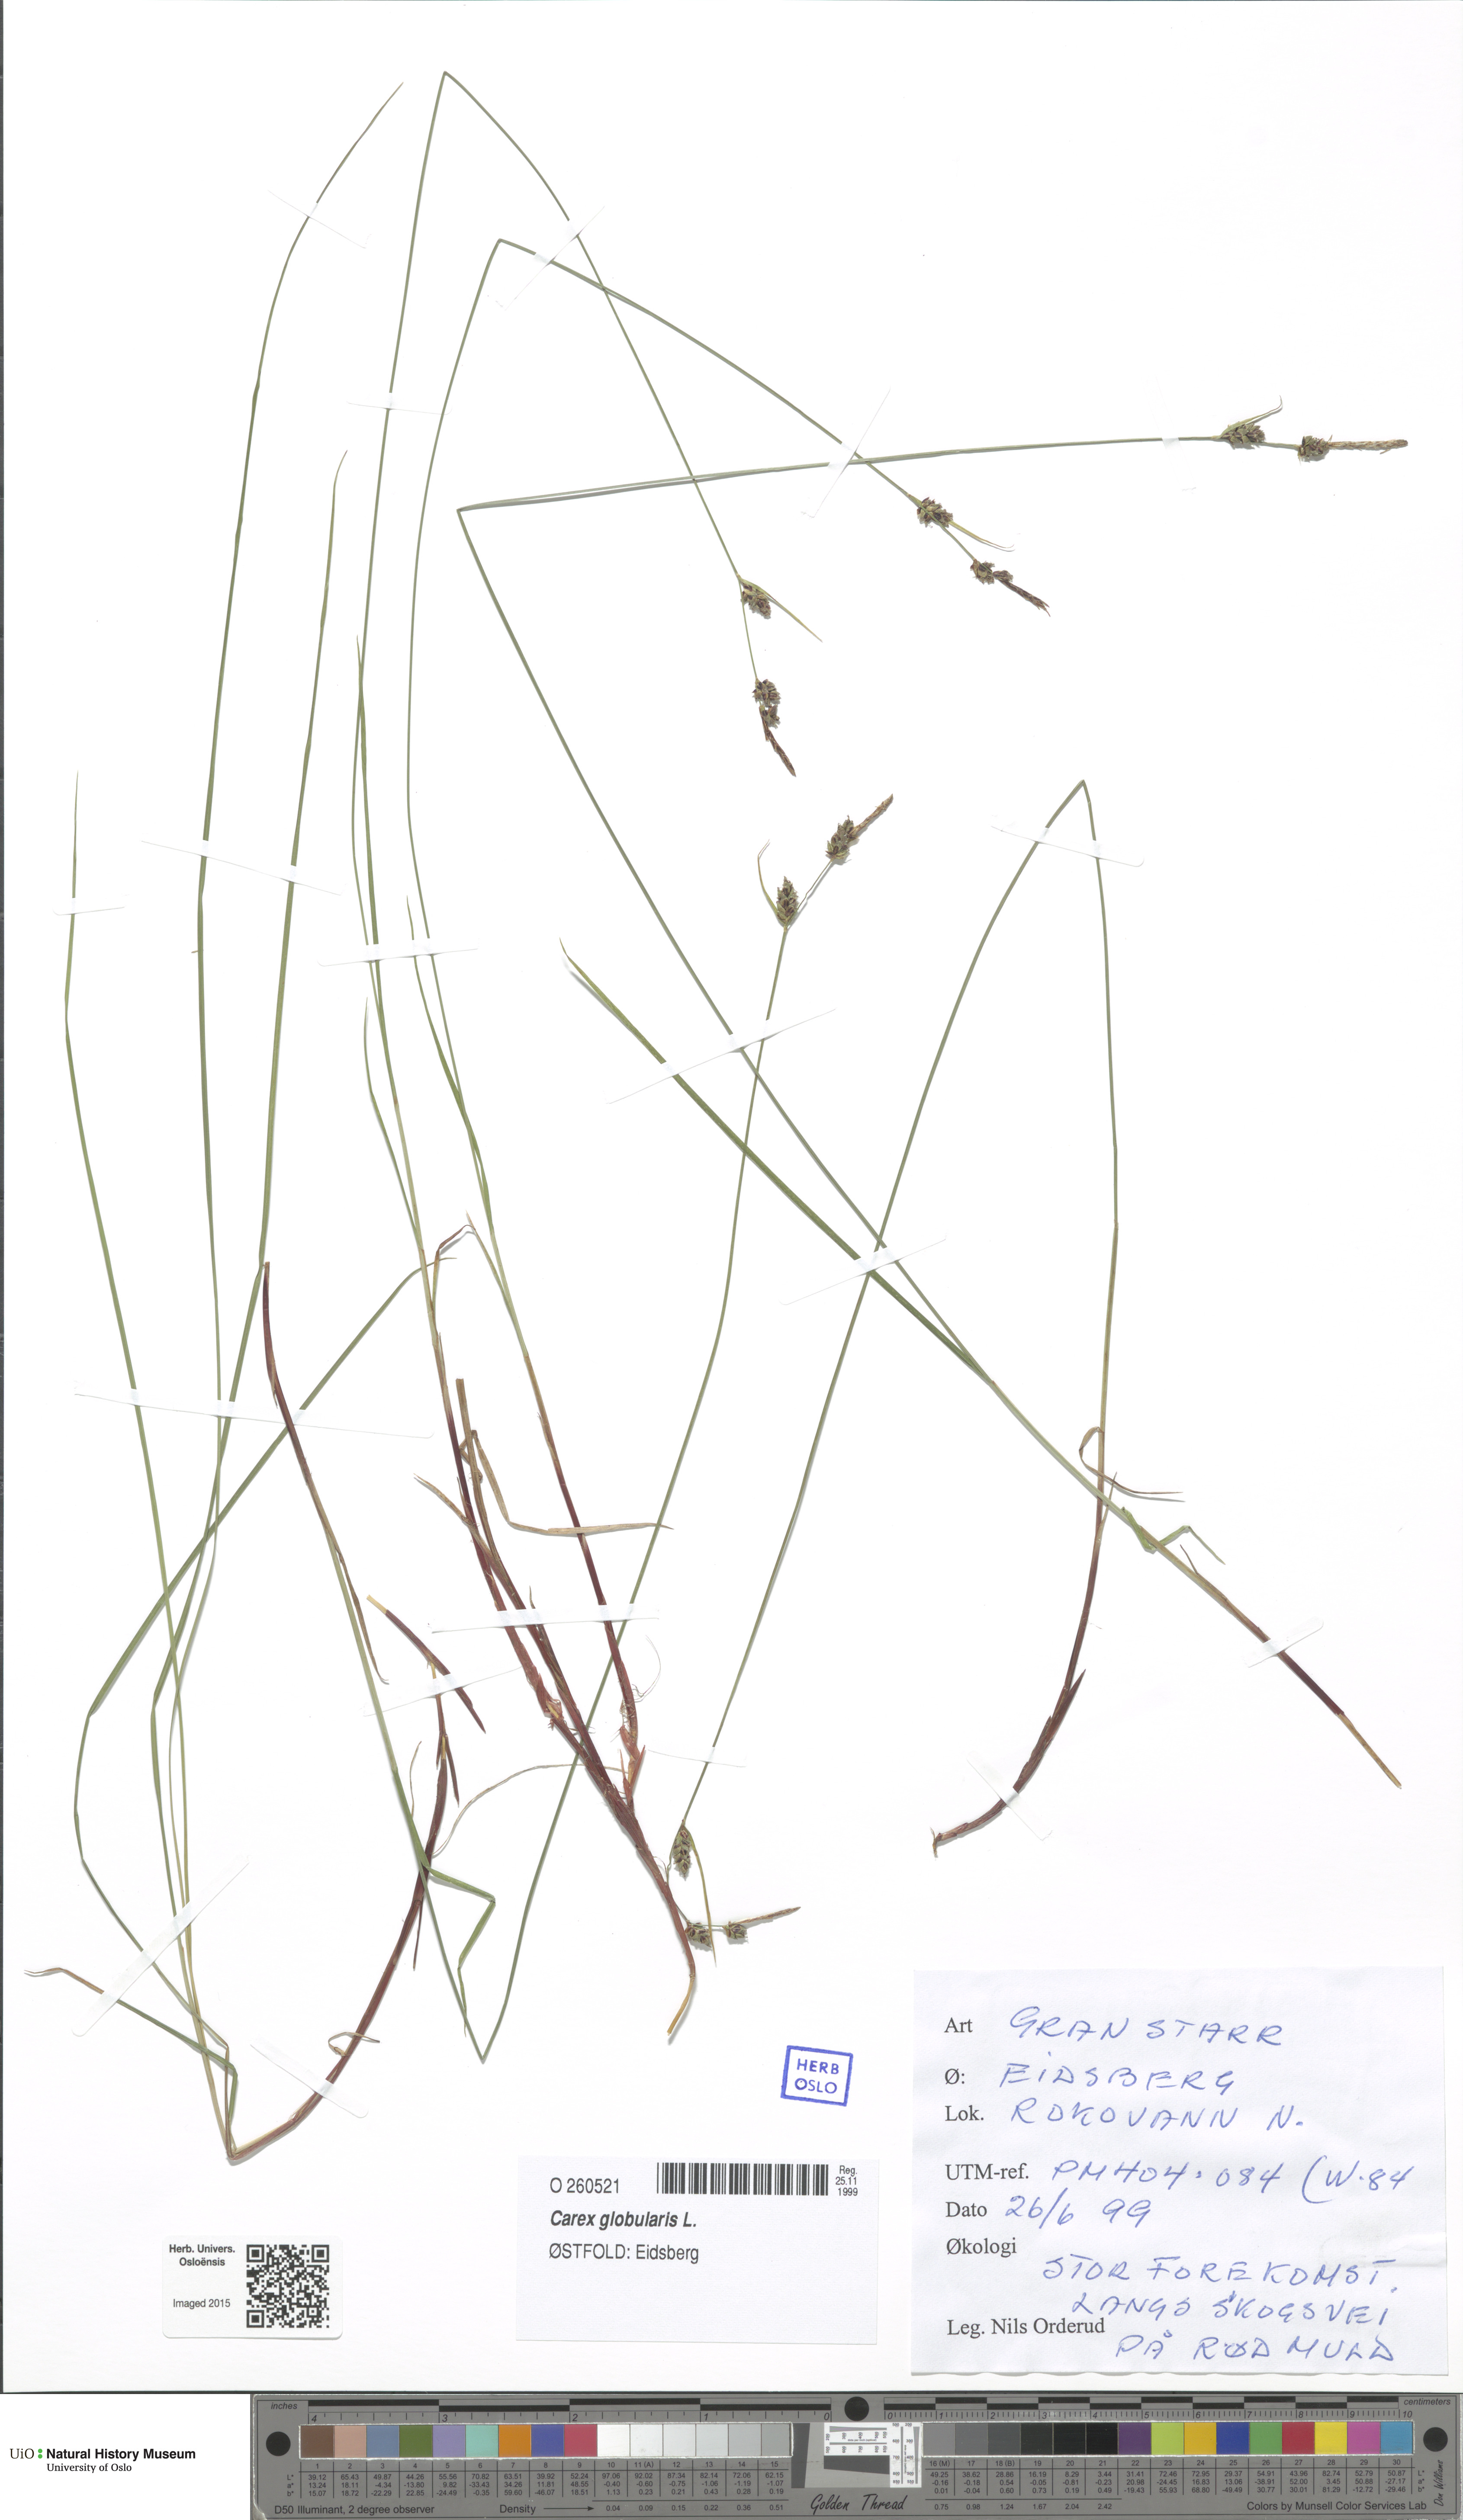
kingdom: Plantae
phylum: Tracheophyta
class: Liliopsida
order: Poales
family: Cyperaceae
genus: Carex
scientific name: Carex globularis
